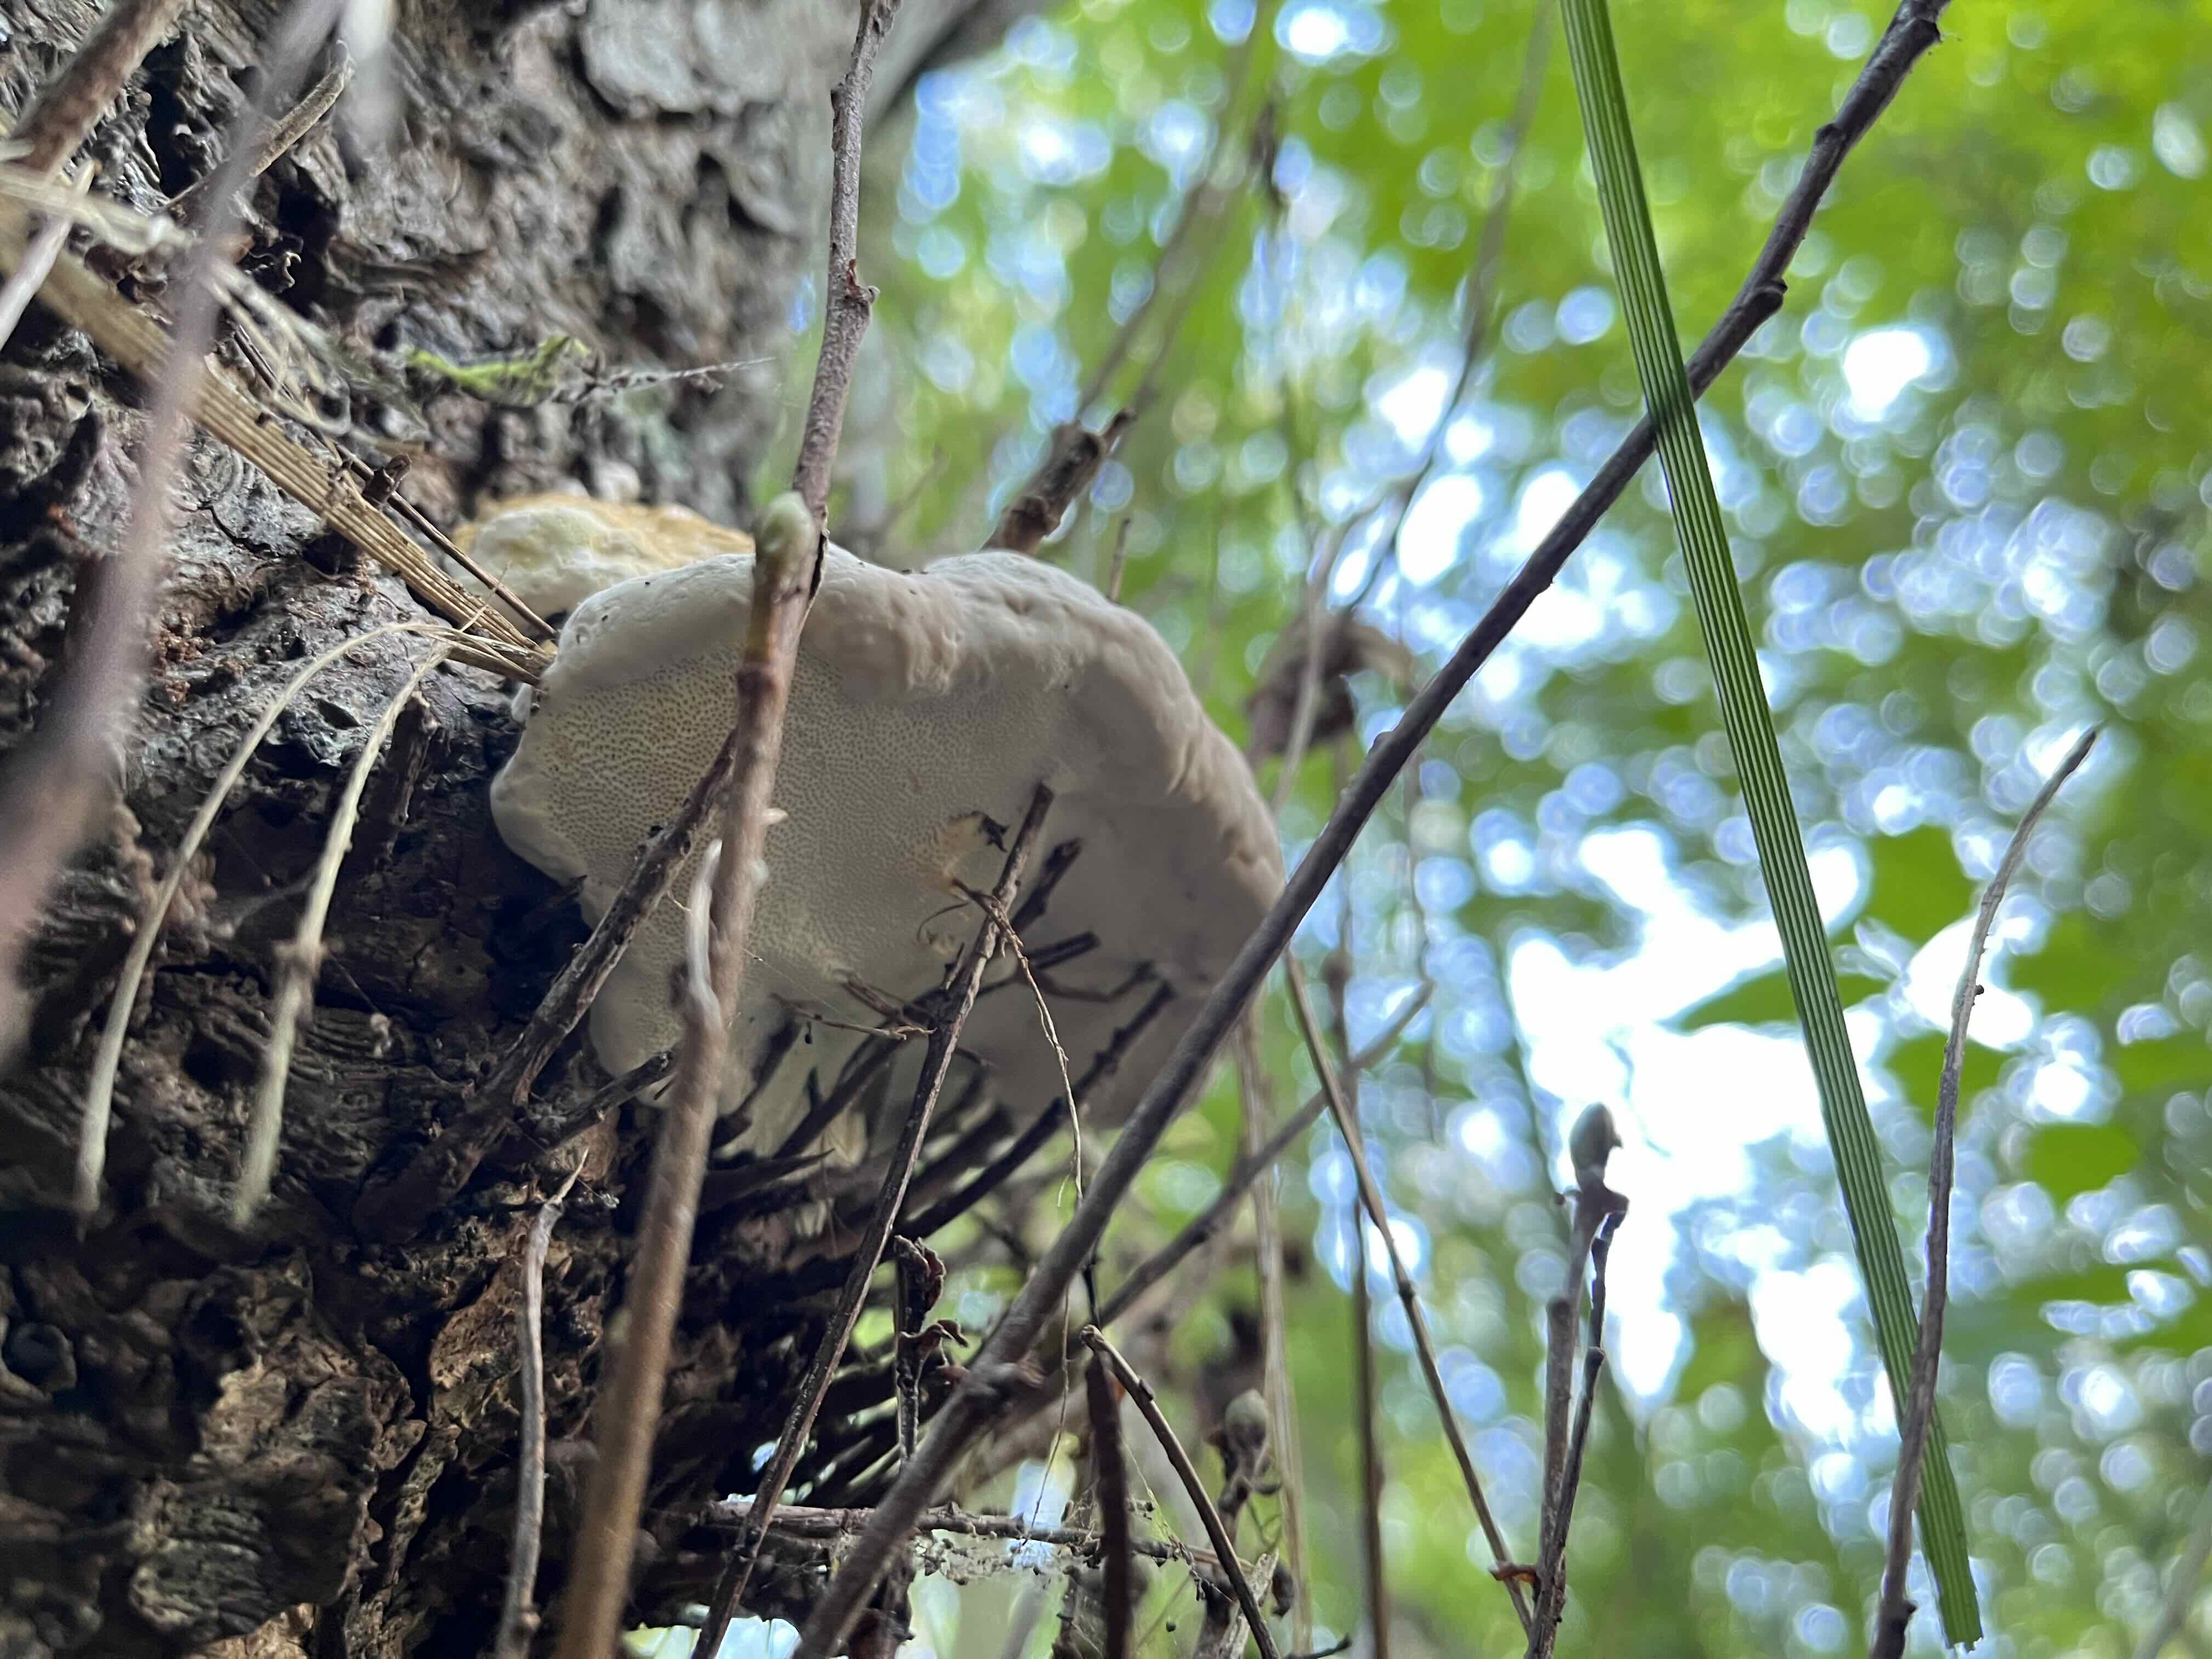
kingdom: Fungi
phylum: Basidiomycota
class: Agaricomycetes
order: Polyporales
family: Fomitopsidaceae
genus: Fomitopsis
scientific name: Fomitopsis pinicola
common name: randbæltet hovporesvamp
